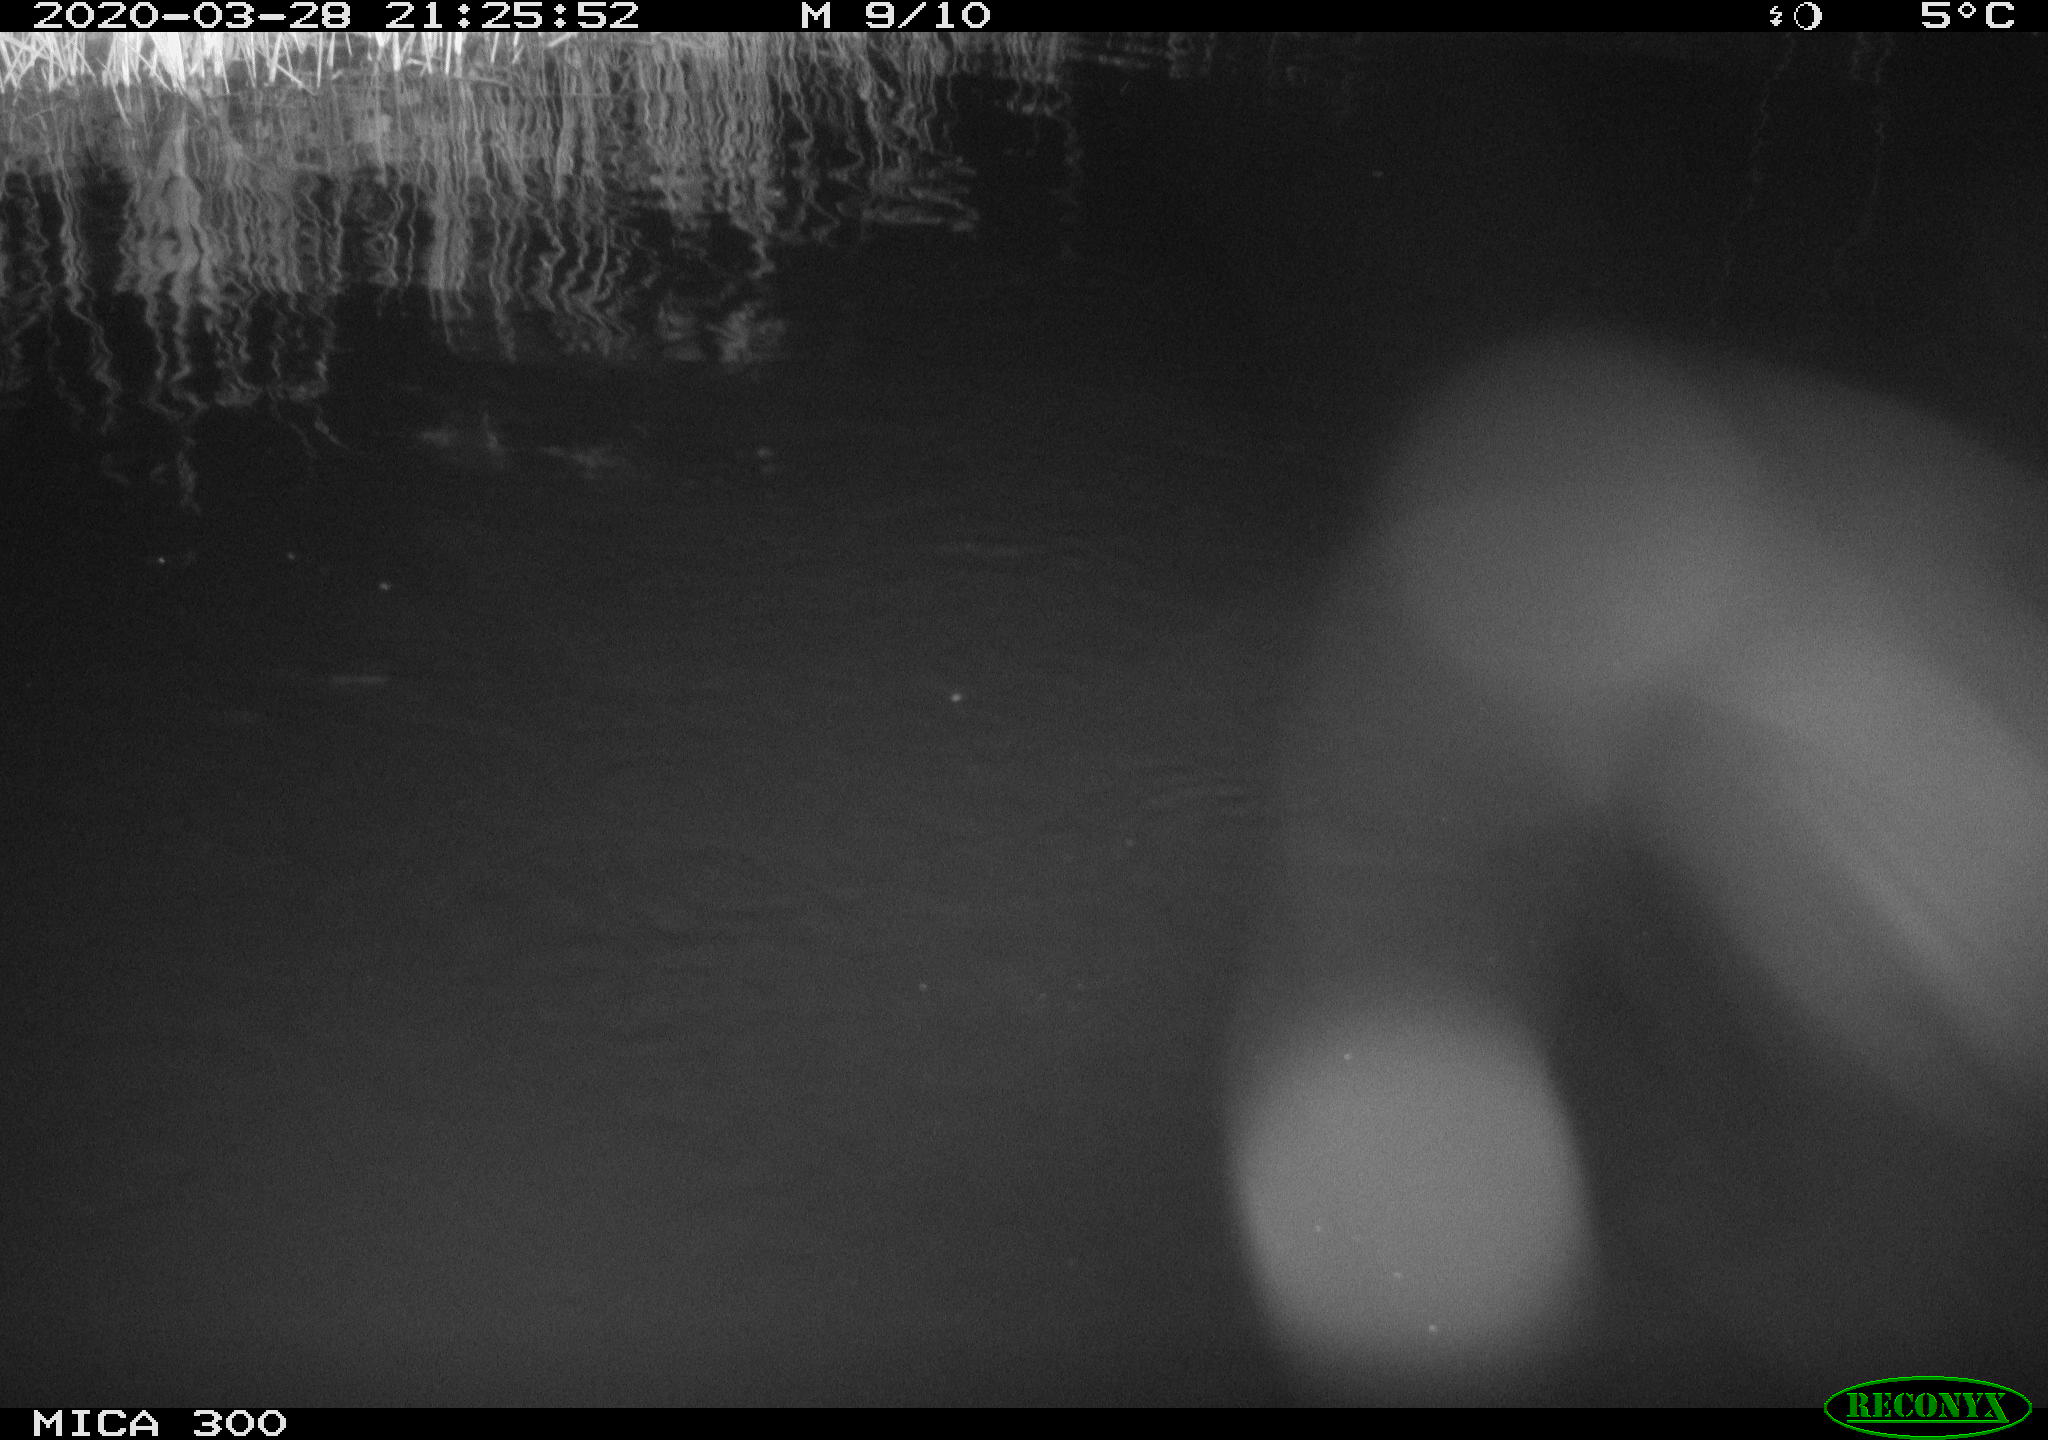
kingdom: Animalia
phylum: Chordata
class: Mammalia
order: Rodentia
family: Castoridae
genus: Castor
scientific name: Castor fiber
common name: Eurasian beaver
